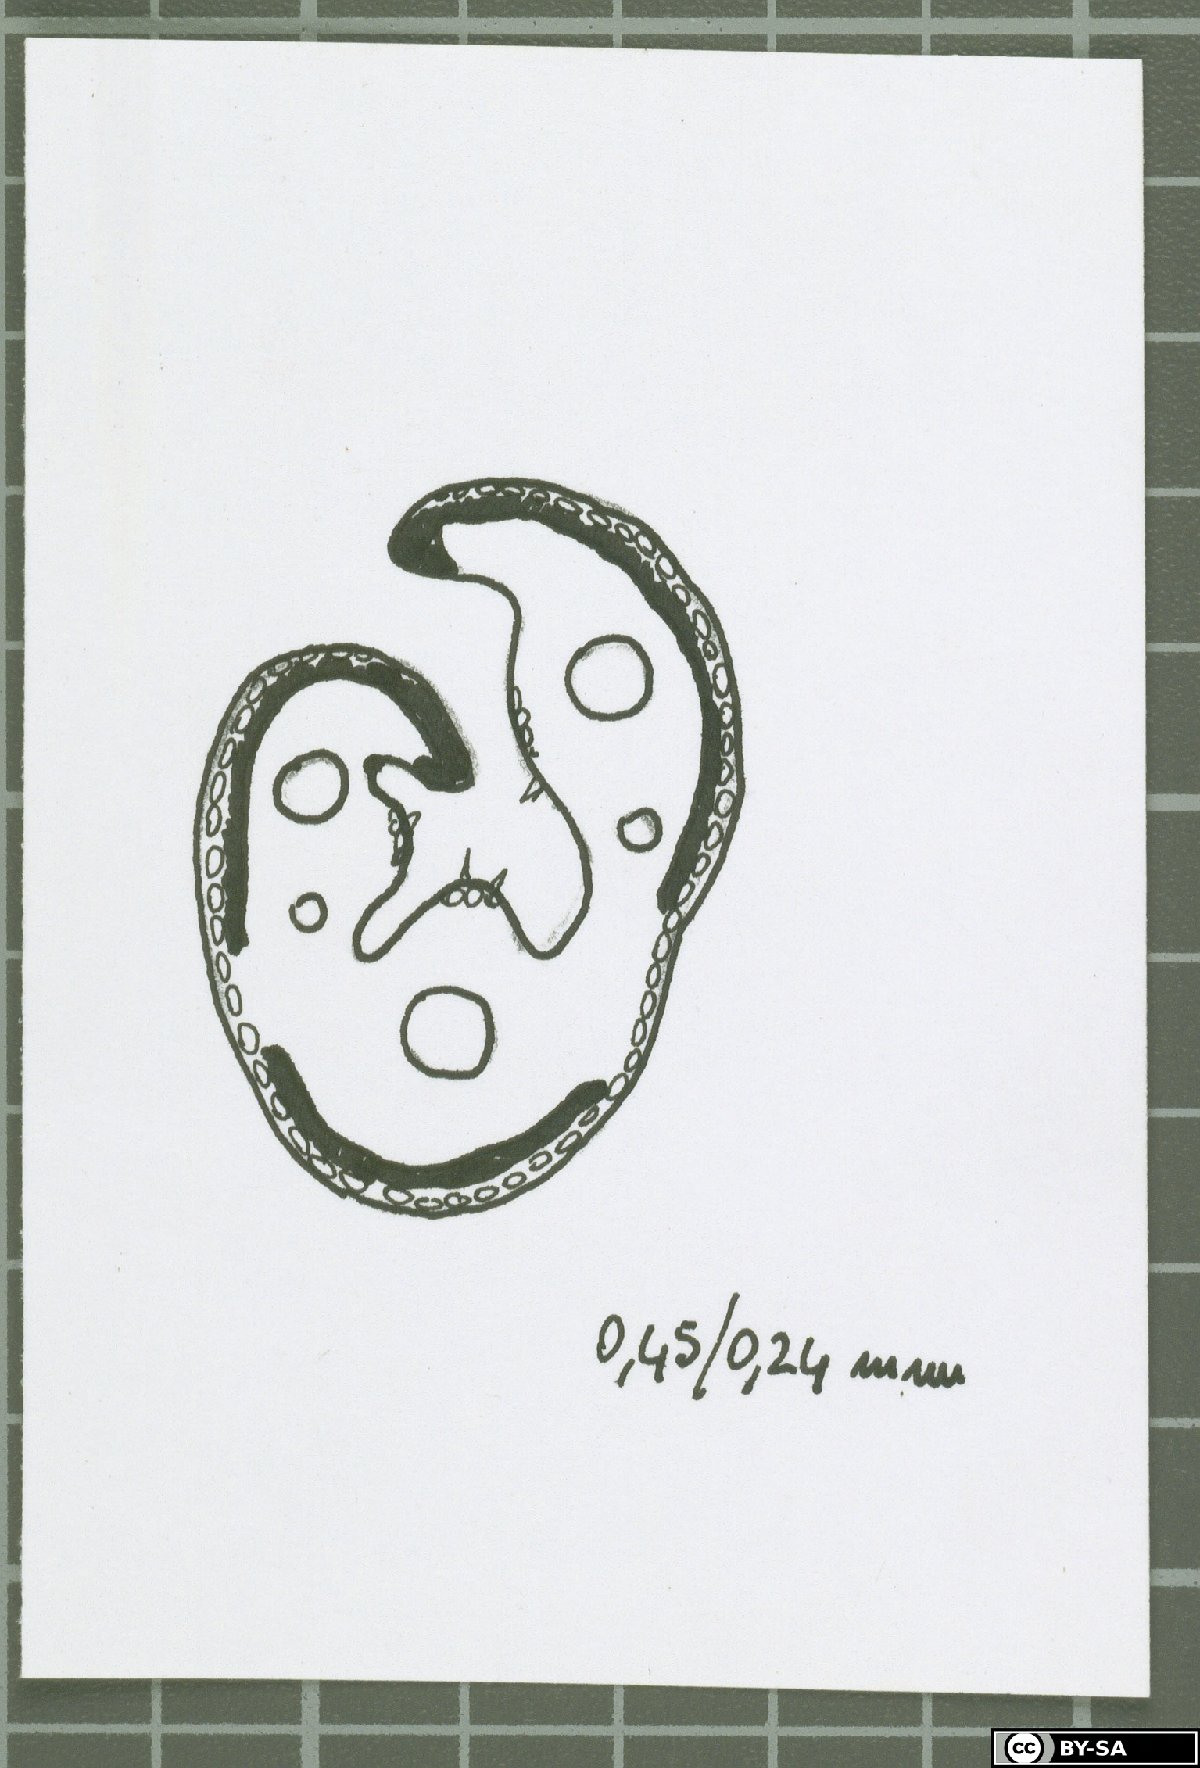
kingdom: Plantae
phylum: Tracheophyta
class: Liliopsida
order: Poales
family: Poaceae
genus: Festuca
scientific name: Festuca sardoa
